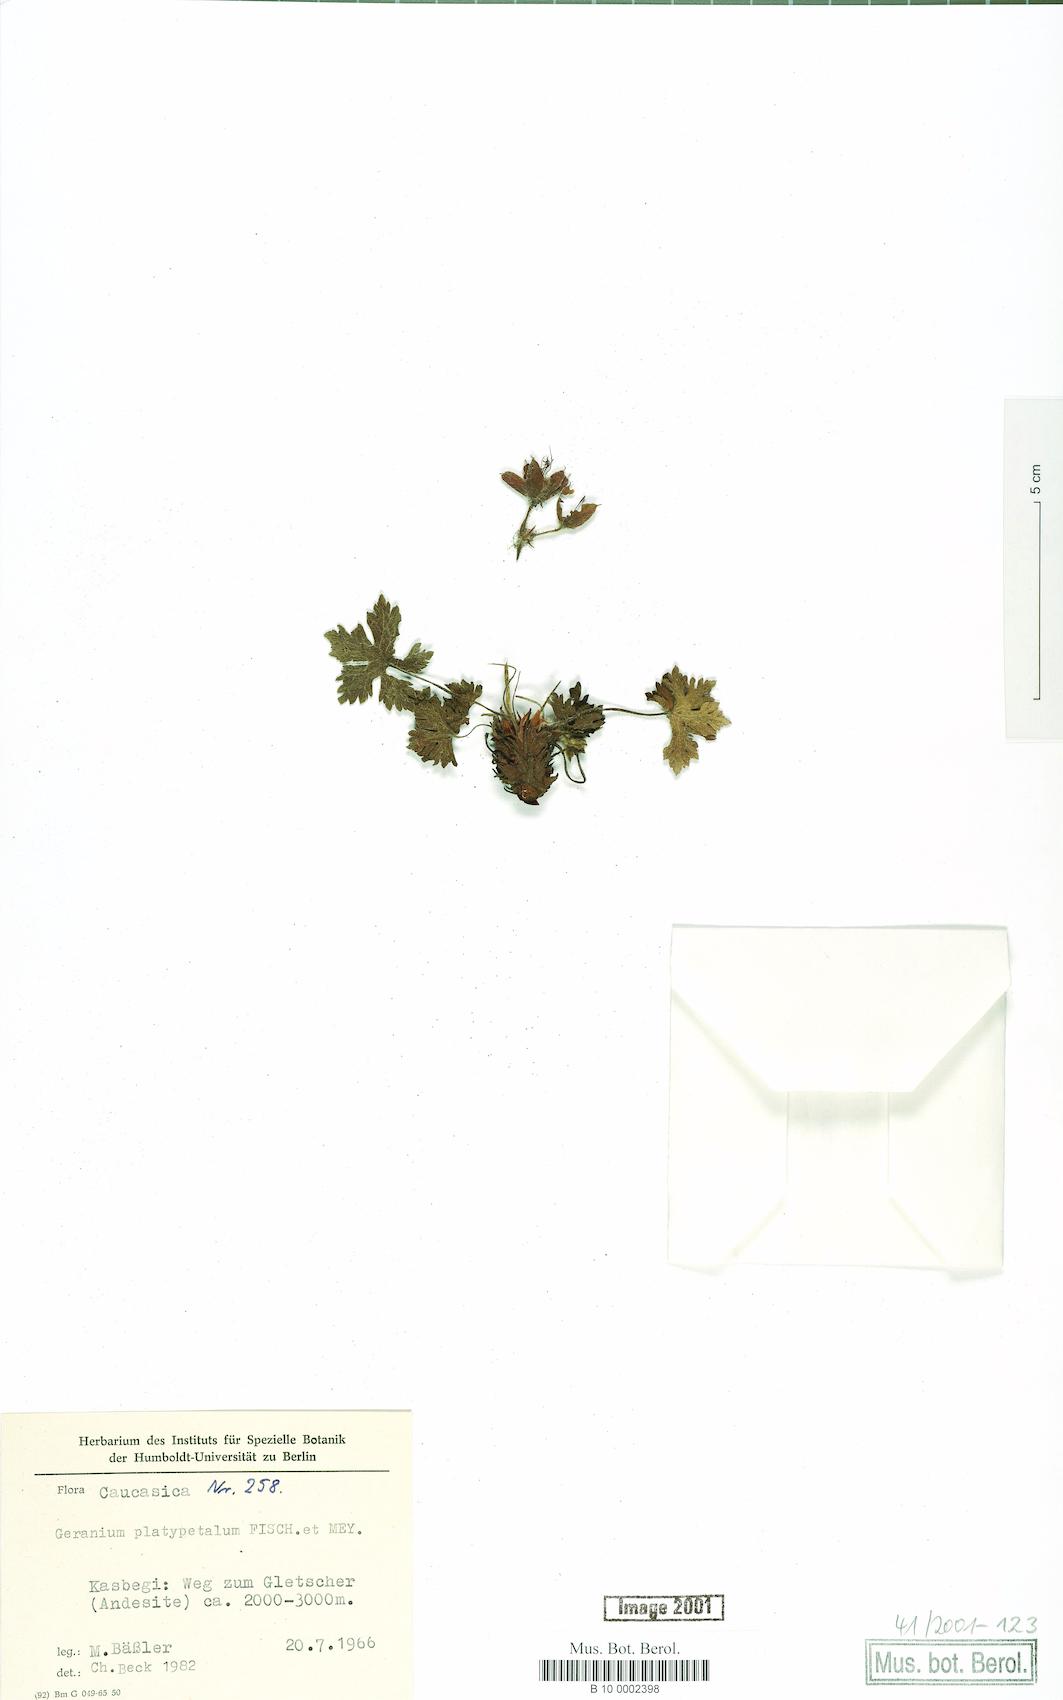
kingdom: Plantae
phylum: Tracheophyta
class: Magnoliopsida
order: Geraniales
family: Geraniaceae
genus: Geranium
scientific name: Geranium platypetalum
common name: Glandular crane's-bill
